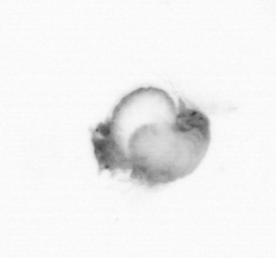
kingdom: Animalia
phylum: Annelida
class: Polychaeta
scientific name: Polychaeta
